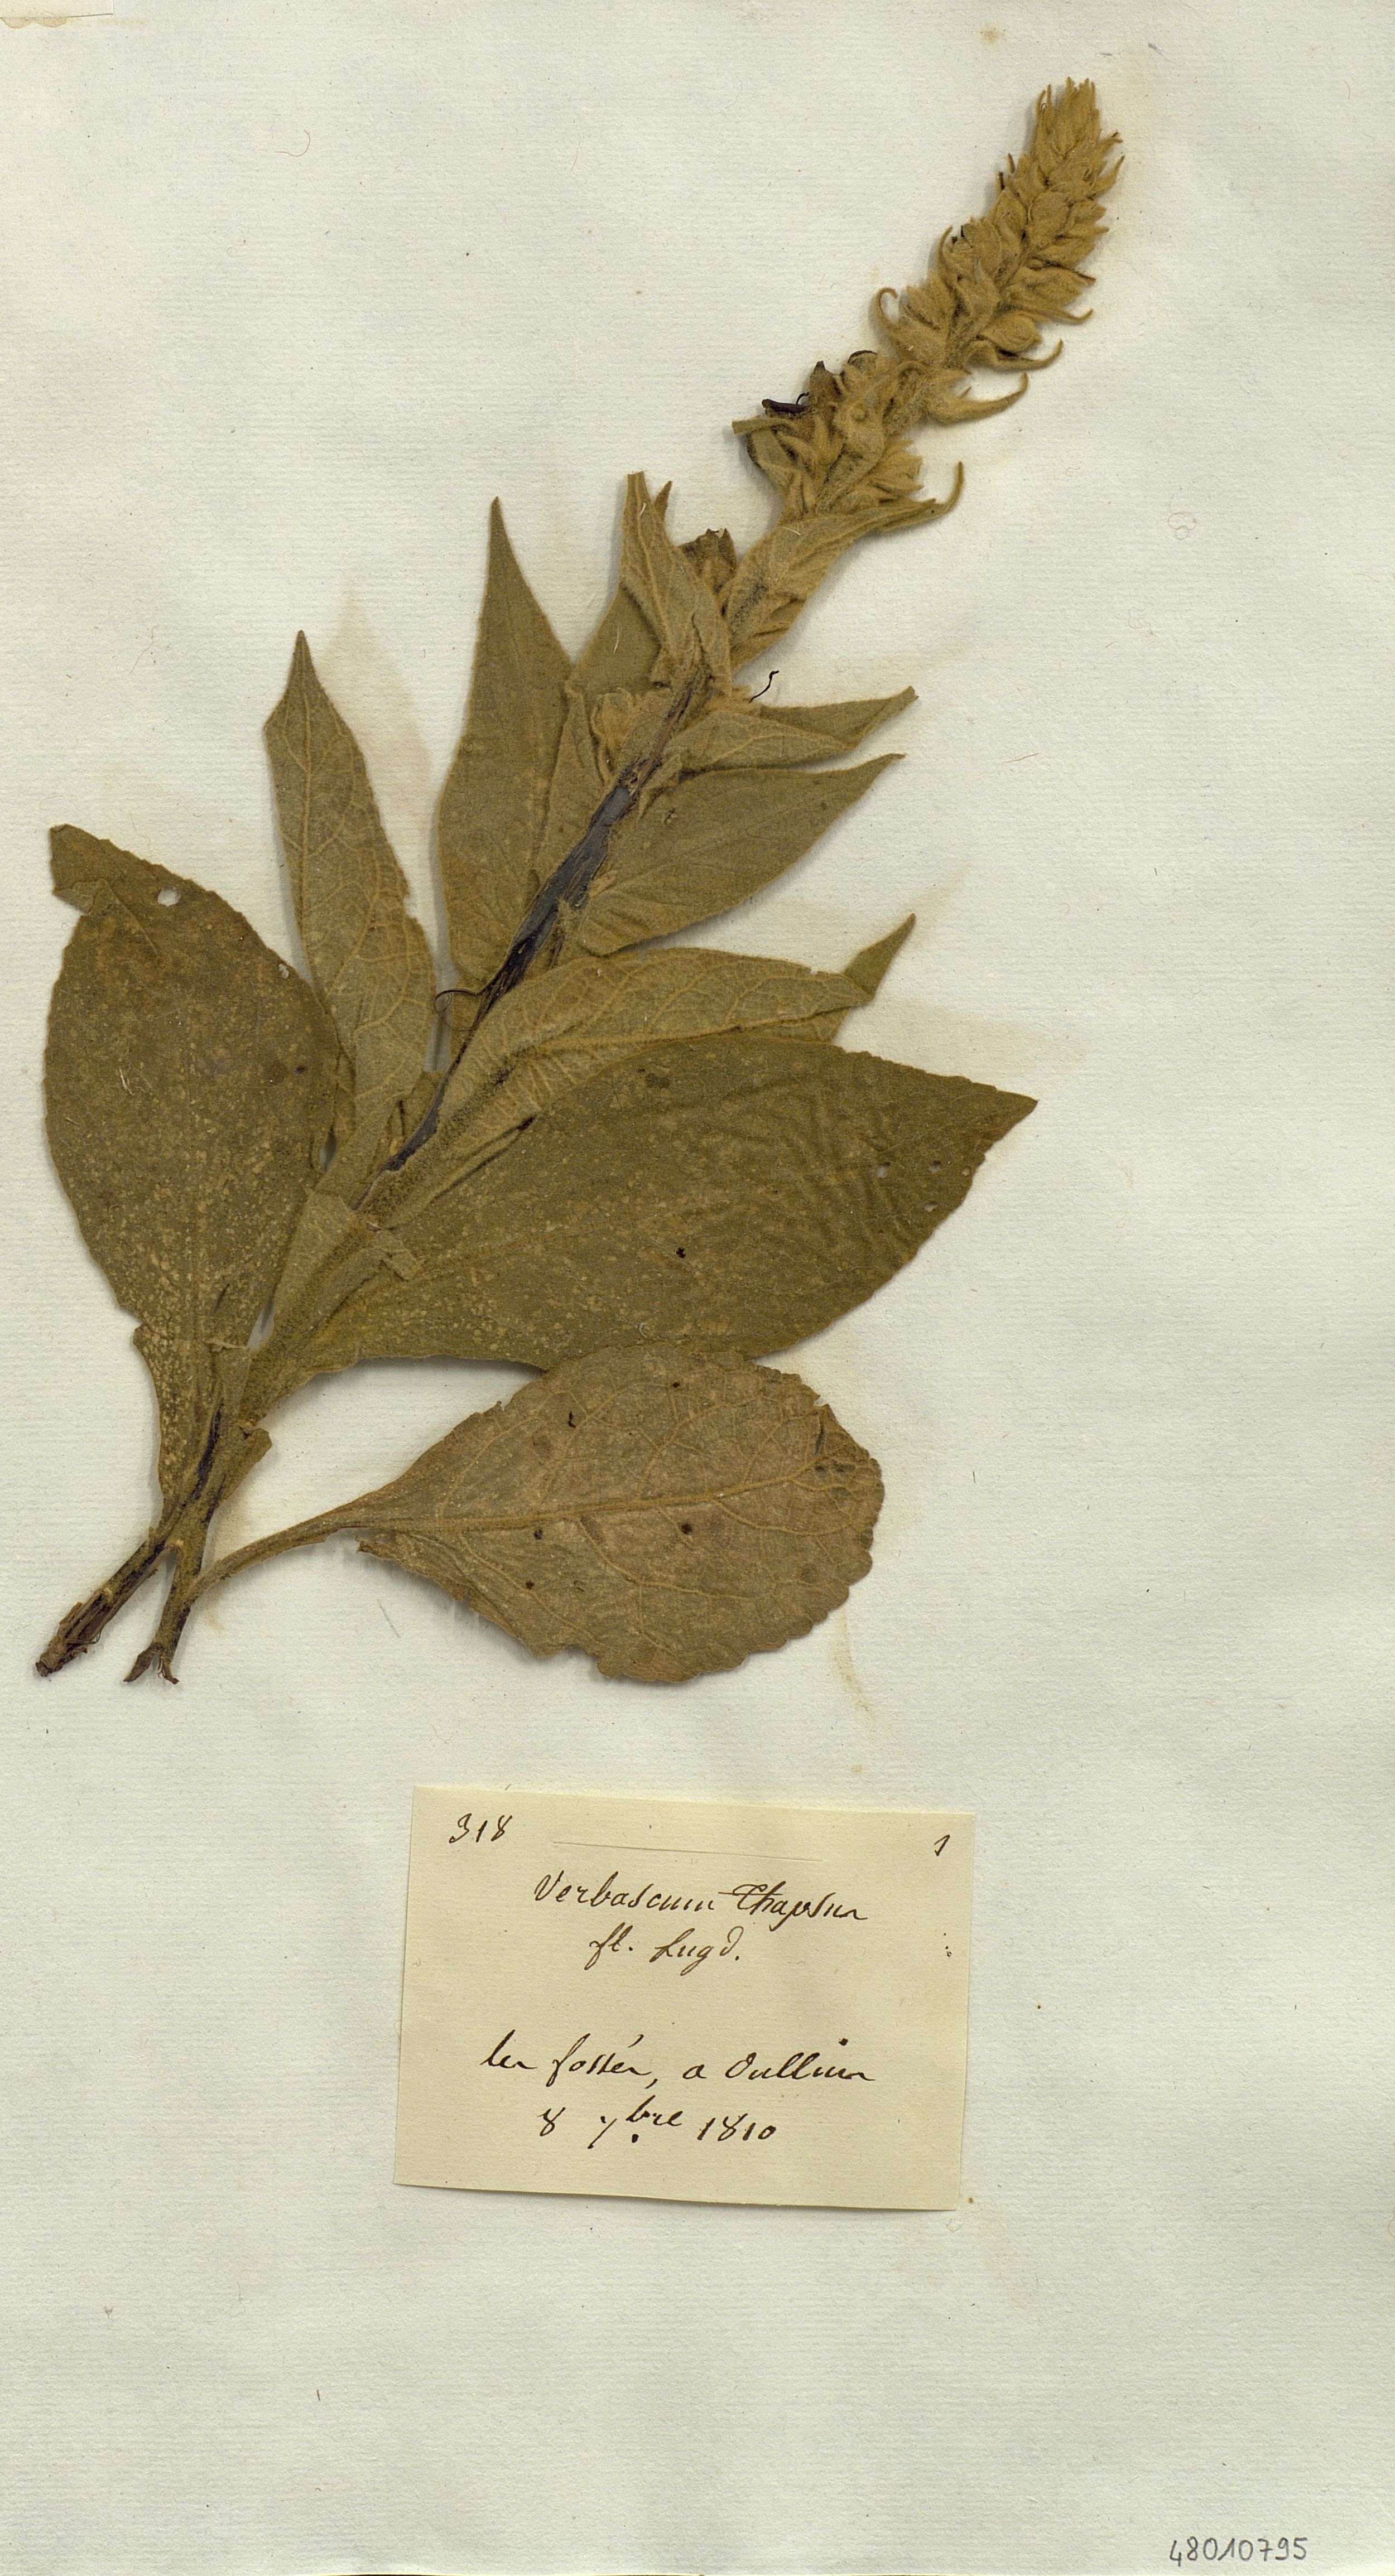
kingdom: Plantae
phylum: Tracheophyta
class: Magnoliopsida
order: Lamiales
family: Scrophulariaceae
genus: Verbascum
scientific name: Verbascum thapsus
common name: Common mullein
